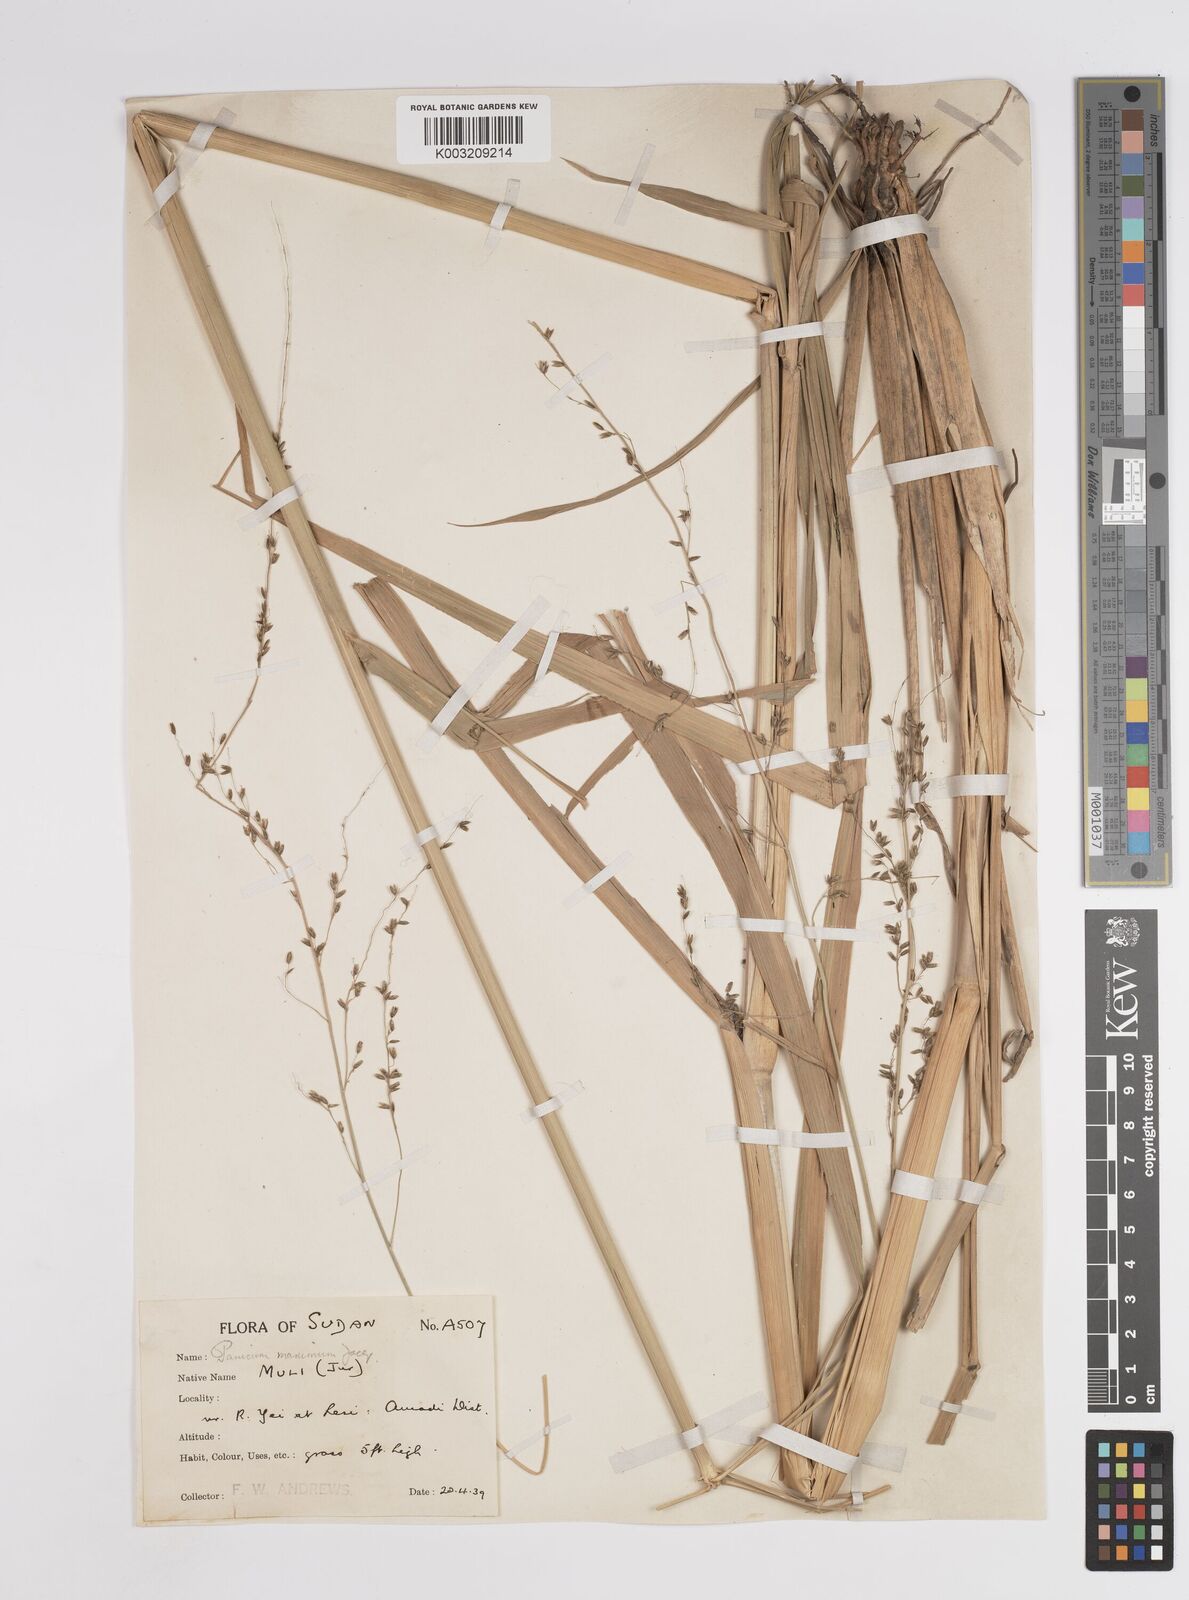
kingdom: Plantae
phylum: Tracheophyta
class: Liliopsida
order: Poales
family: Poaceae
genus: Megathyrsus
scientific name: Megathyrsus maximus
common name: Guineagrass
